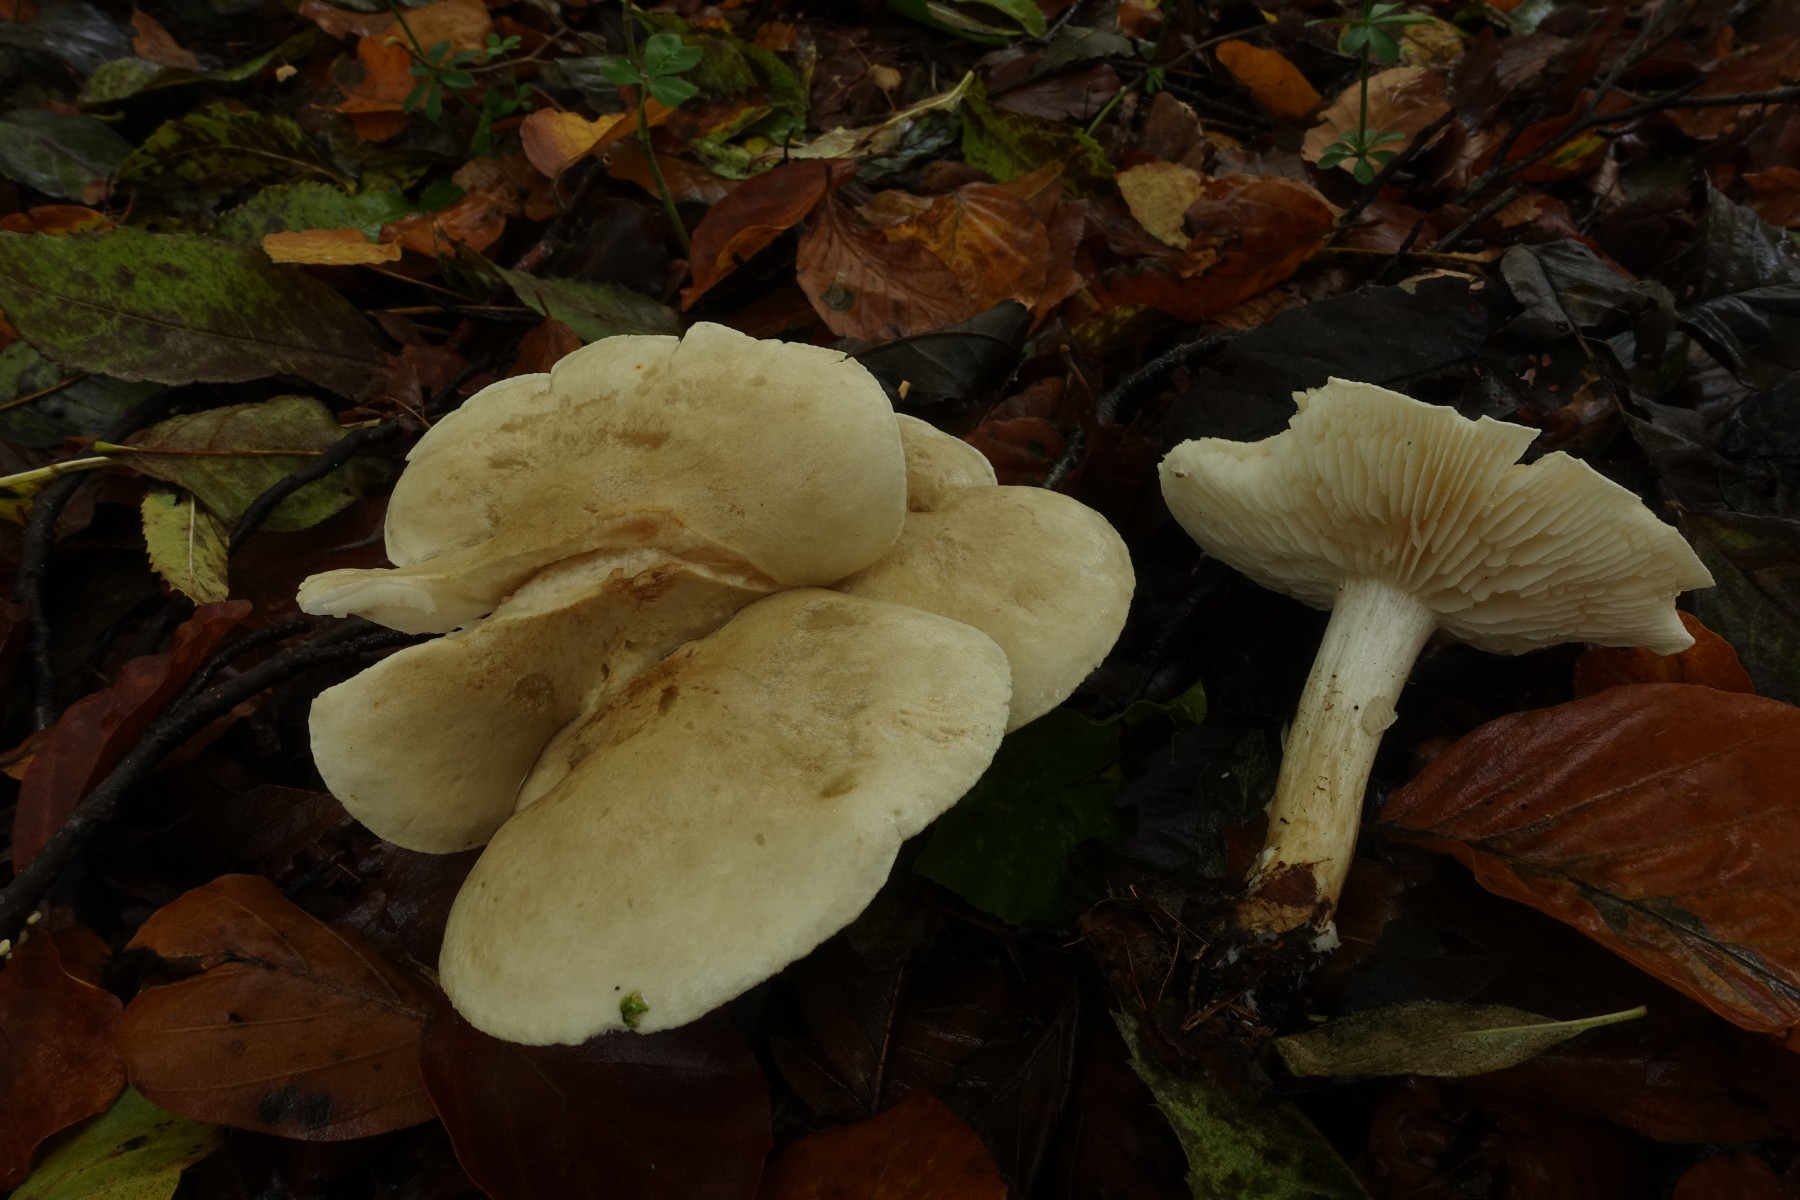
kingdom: Fungi
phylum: Basidiomycota
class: Agaricomycetes
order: Agaricales
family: Tricholomataceae
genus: Tricholoma
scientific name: Tricholoma lascivum
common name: stinkende ridderhat
